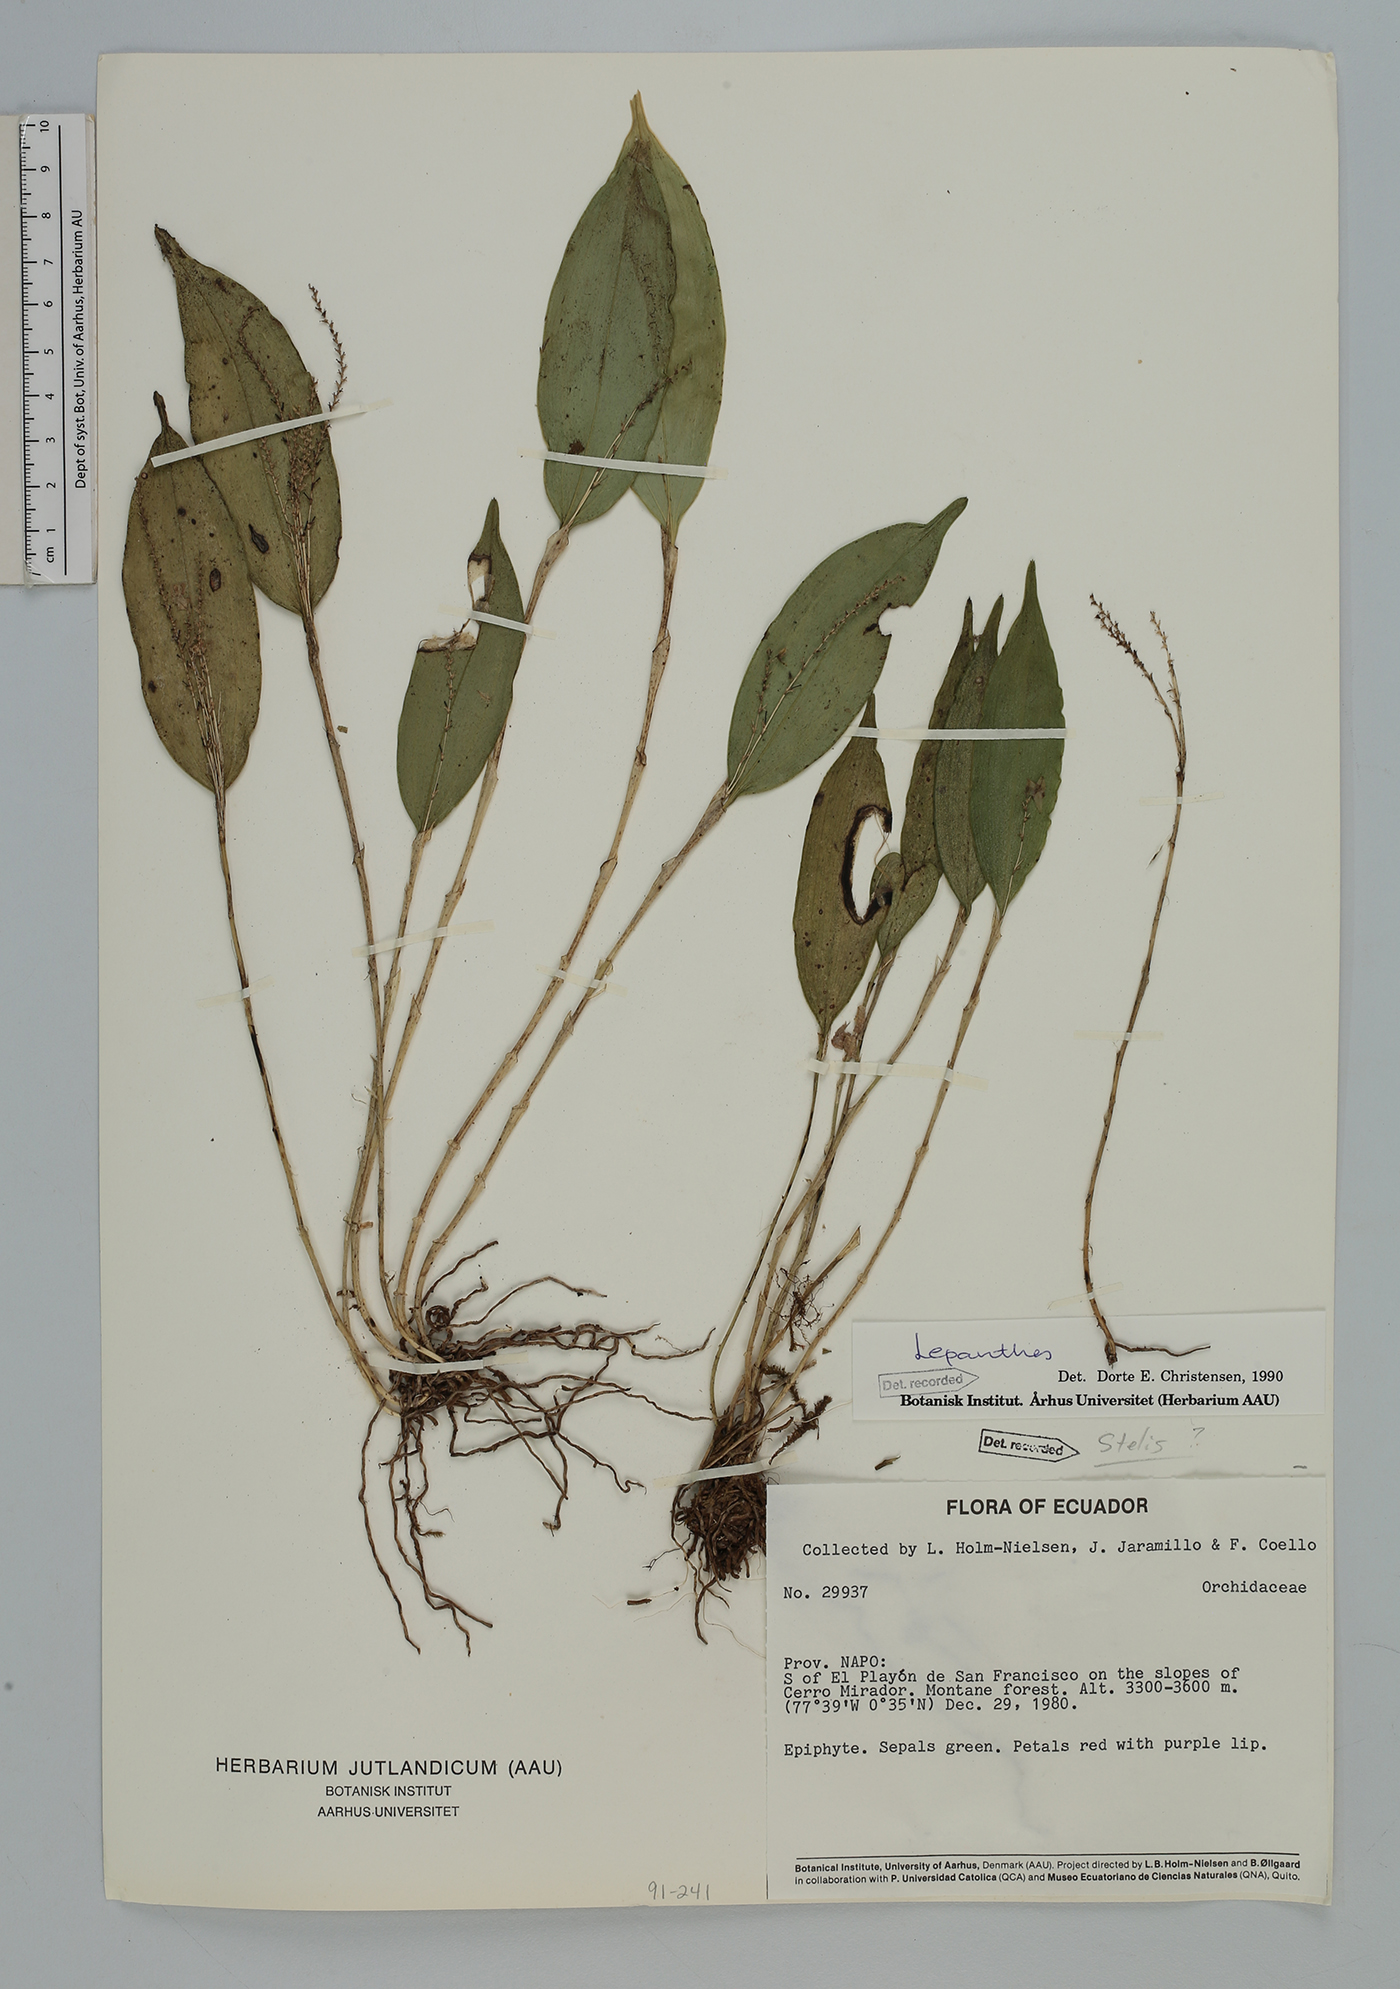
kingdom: Plantae
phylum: Tracheophyta
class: Liliopsida
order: Asparagales
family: Orchidaceae
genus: Lepanthes
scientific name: Lepanthes
